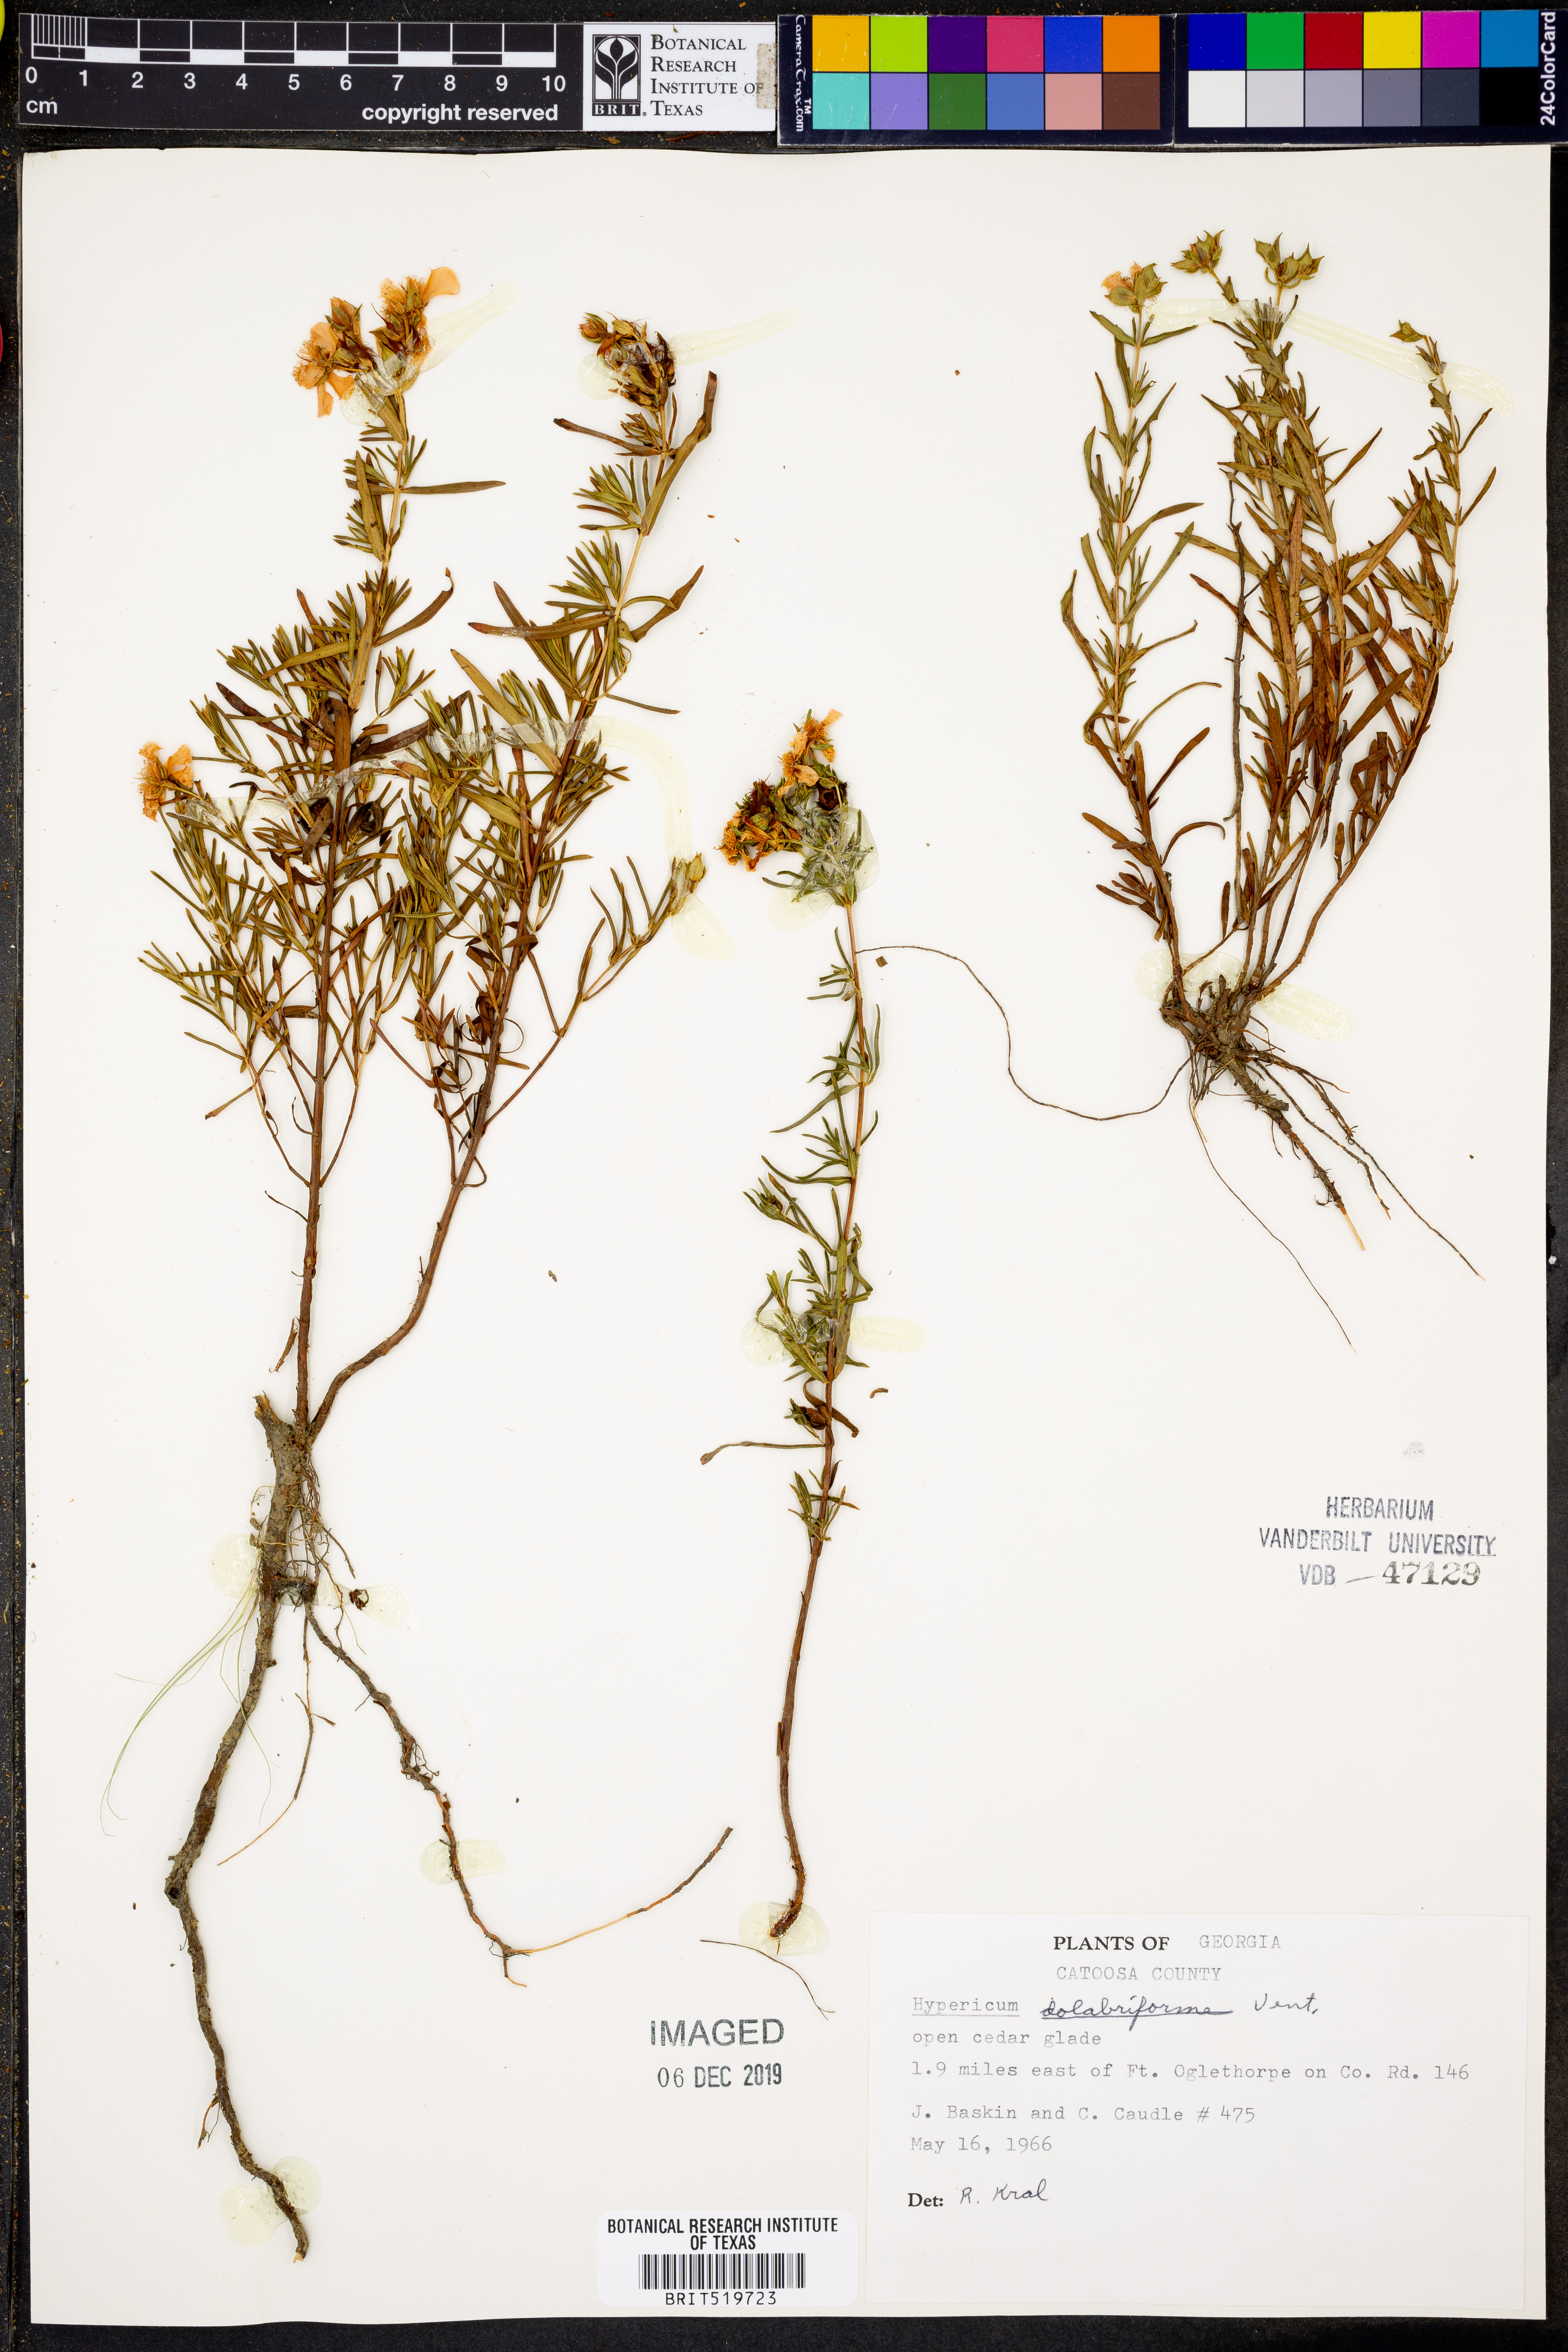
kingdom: Plantae
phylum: Tracheophyta
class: Magnoliopsida
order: Malpighiales
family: Hypericaceae
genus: Hypericum
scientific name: Hypericum dolabriforme
